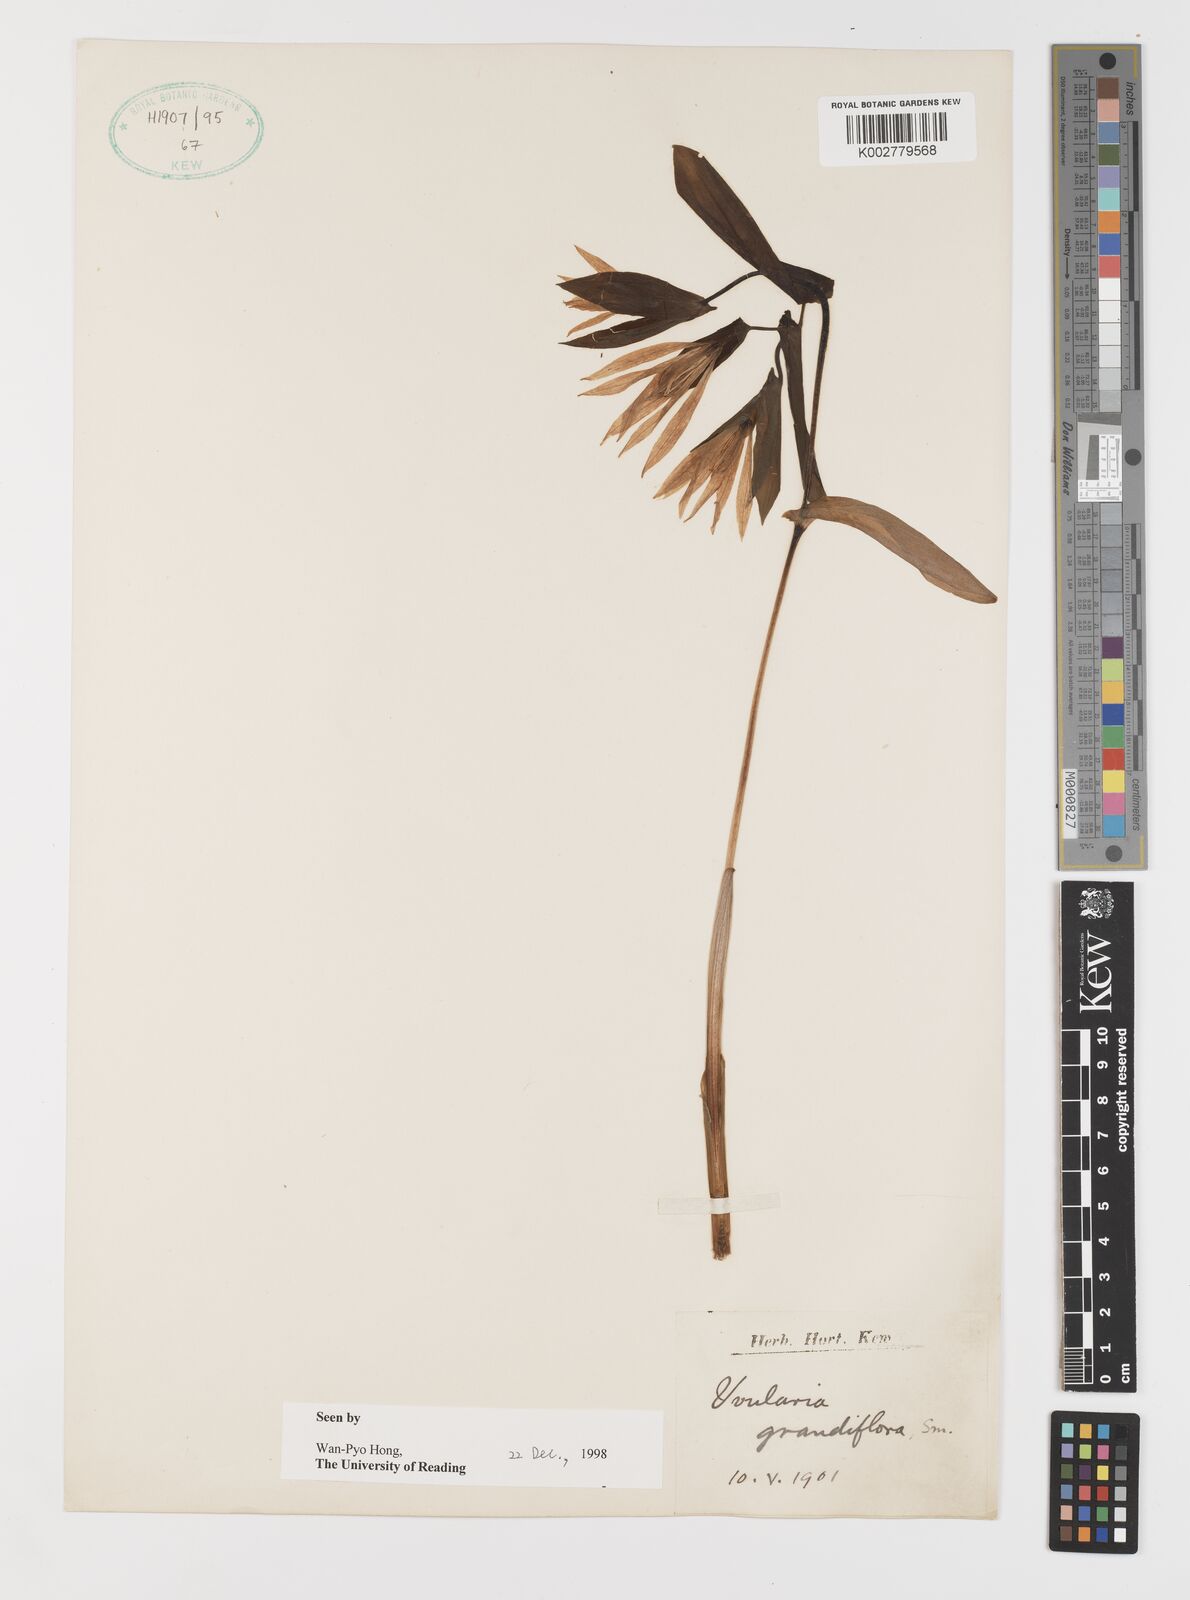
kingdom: Plantae
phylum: Tracheophyta
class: Liliopsida
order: Liliales
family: Colchicaceae
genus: Uvularia
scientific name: Uvularia grandiflora
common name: Bellwort
